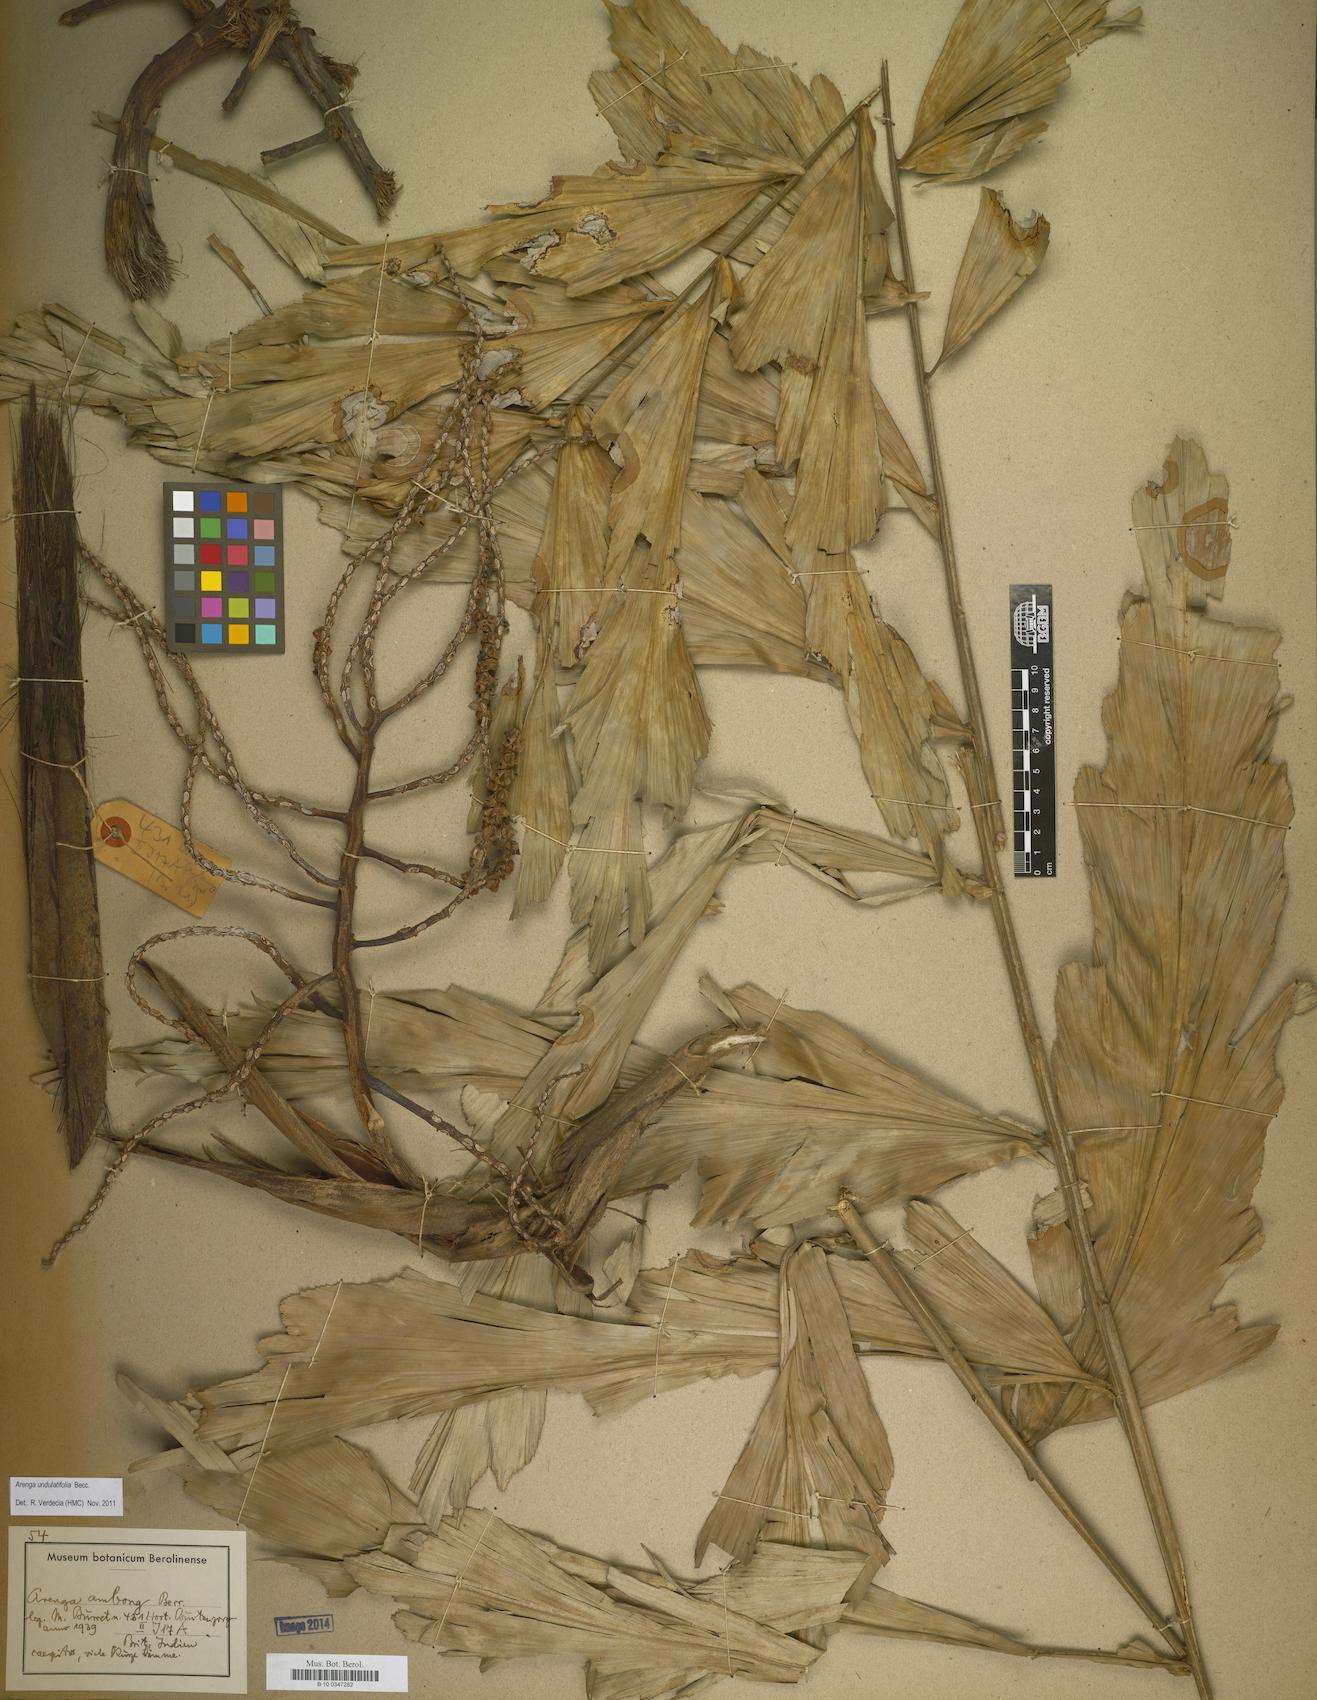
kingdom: Plantae
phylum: Tracheophyta
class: Liliopsida
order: Arecales
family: Arecaceae
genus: Arenga
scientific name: Arenga undulatifolia
